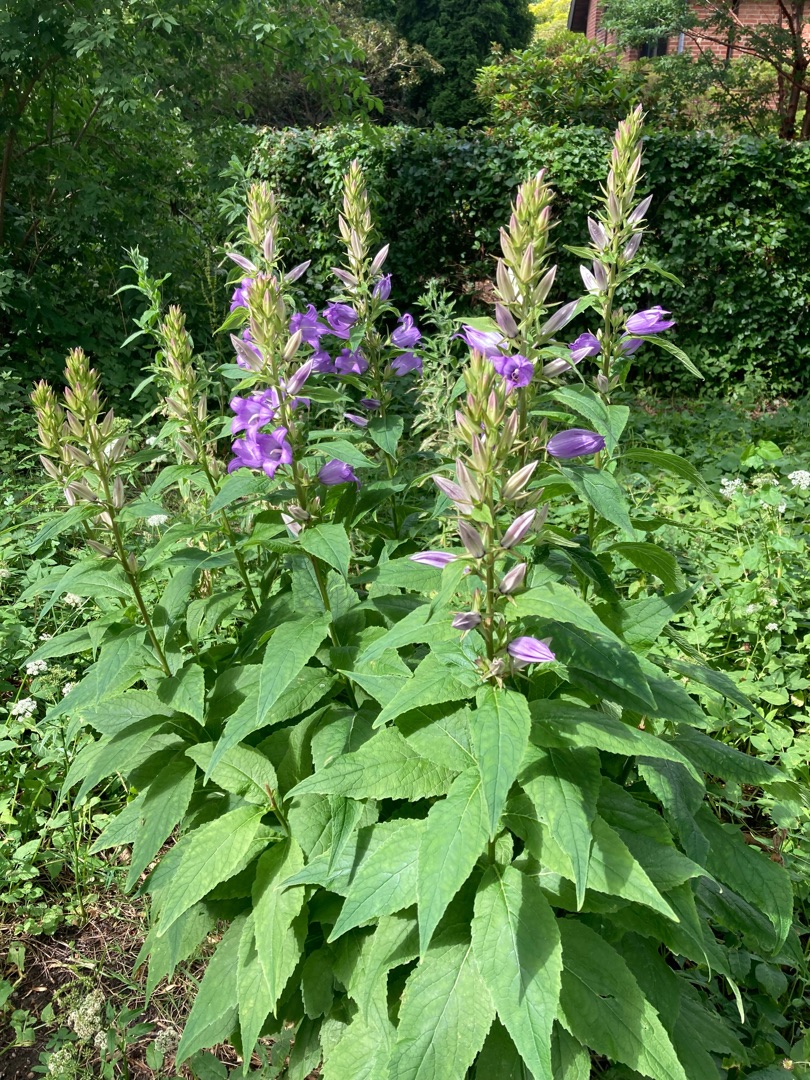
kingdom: Plantae
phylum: Tracheophyta
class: Magnoliopsida
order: Asterales
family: Campanulaceae
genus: Campanula
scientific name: Campanula latifolia
